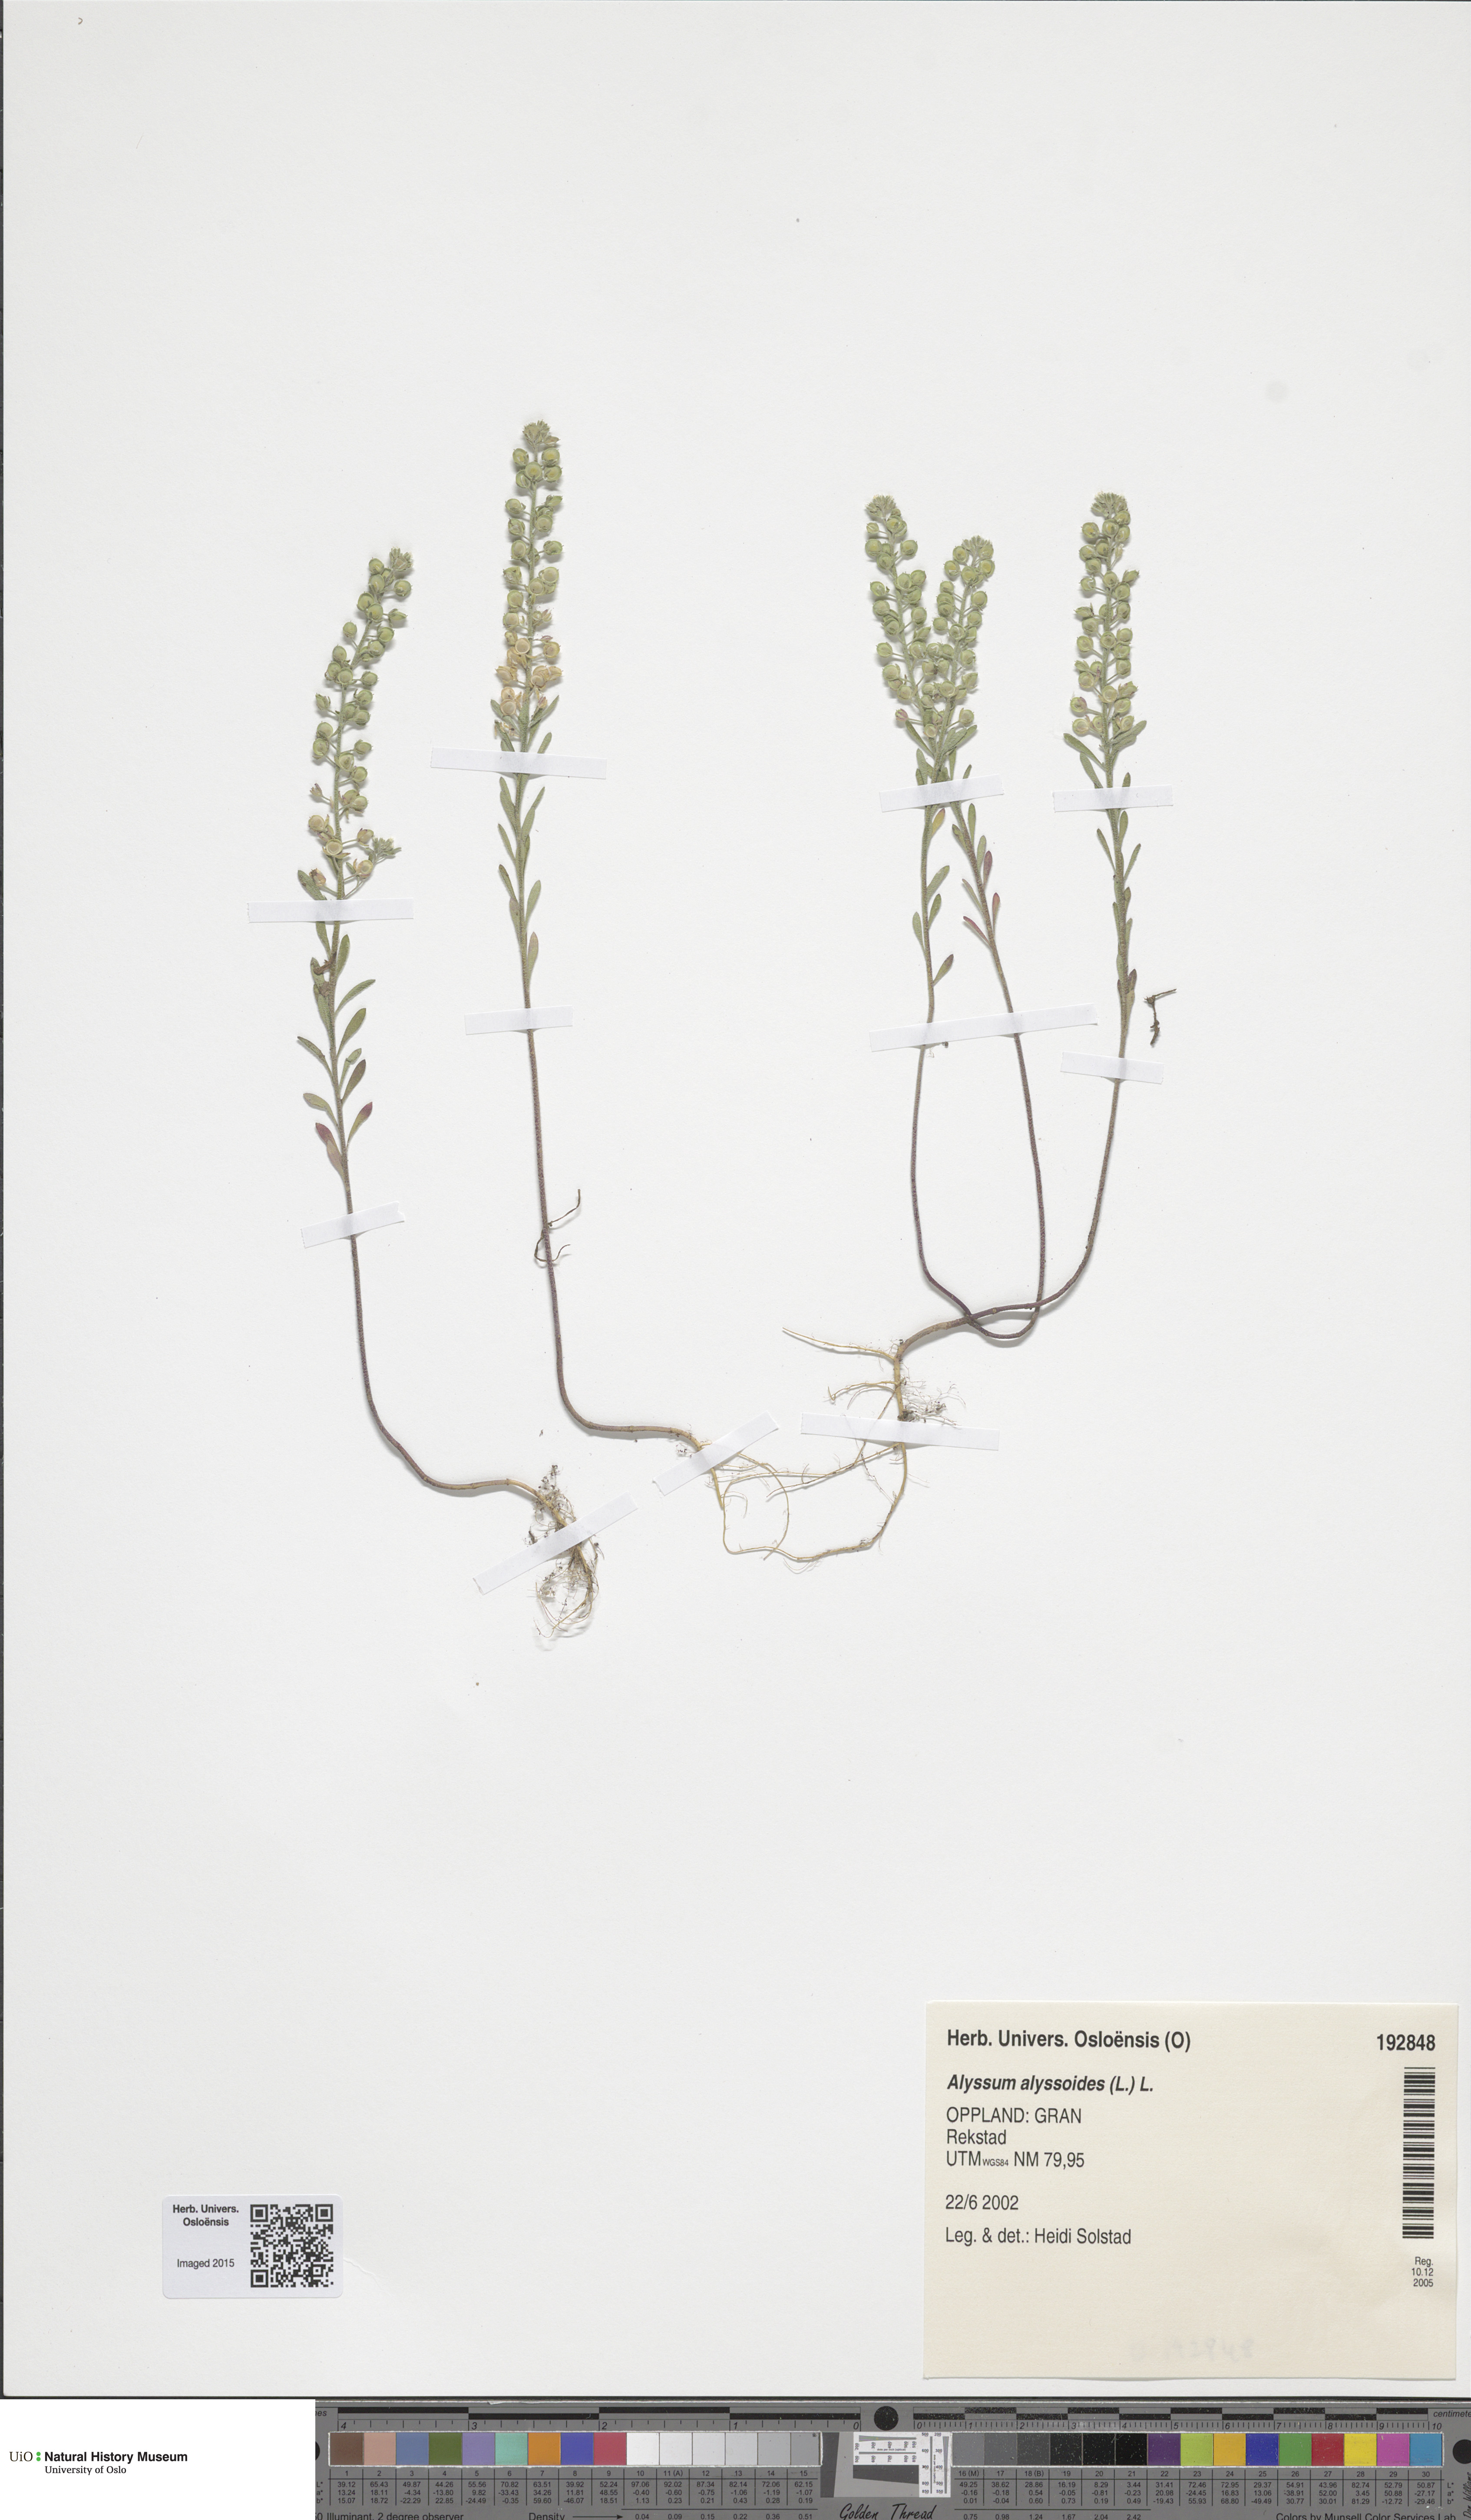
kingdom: Plantae
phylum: Tracheophyta
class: Magnoliopsida
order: Brassicales
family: Brassicaceae
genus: Alyssum
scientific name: Alyssum alyssoides
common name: Small alison
